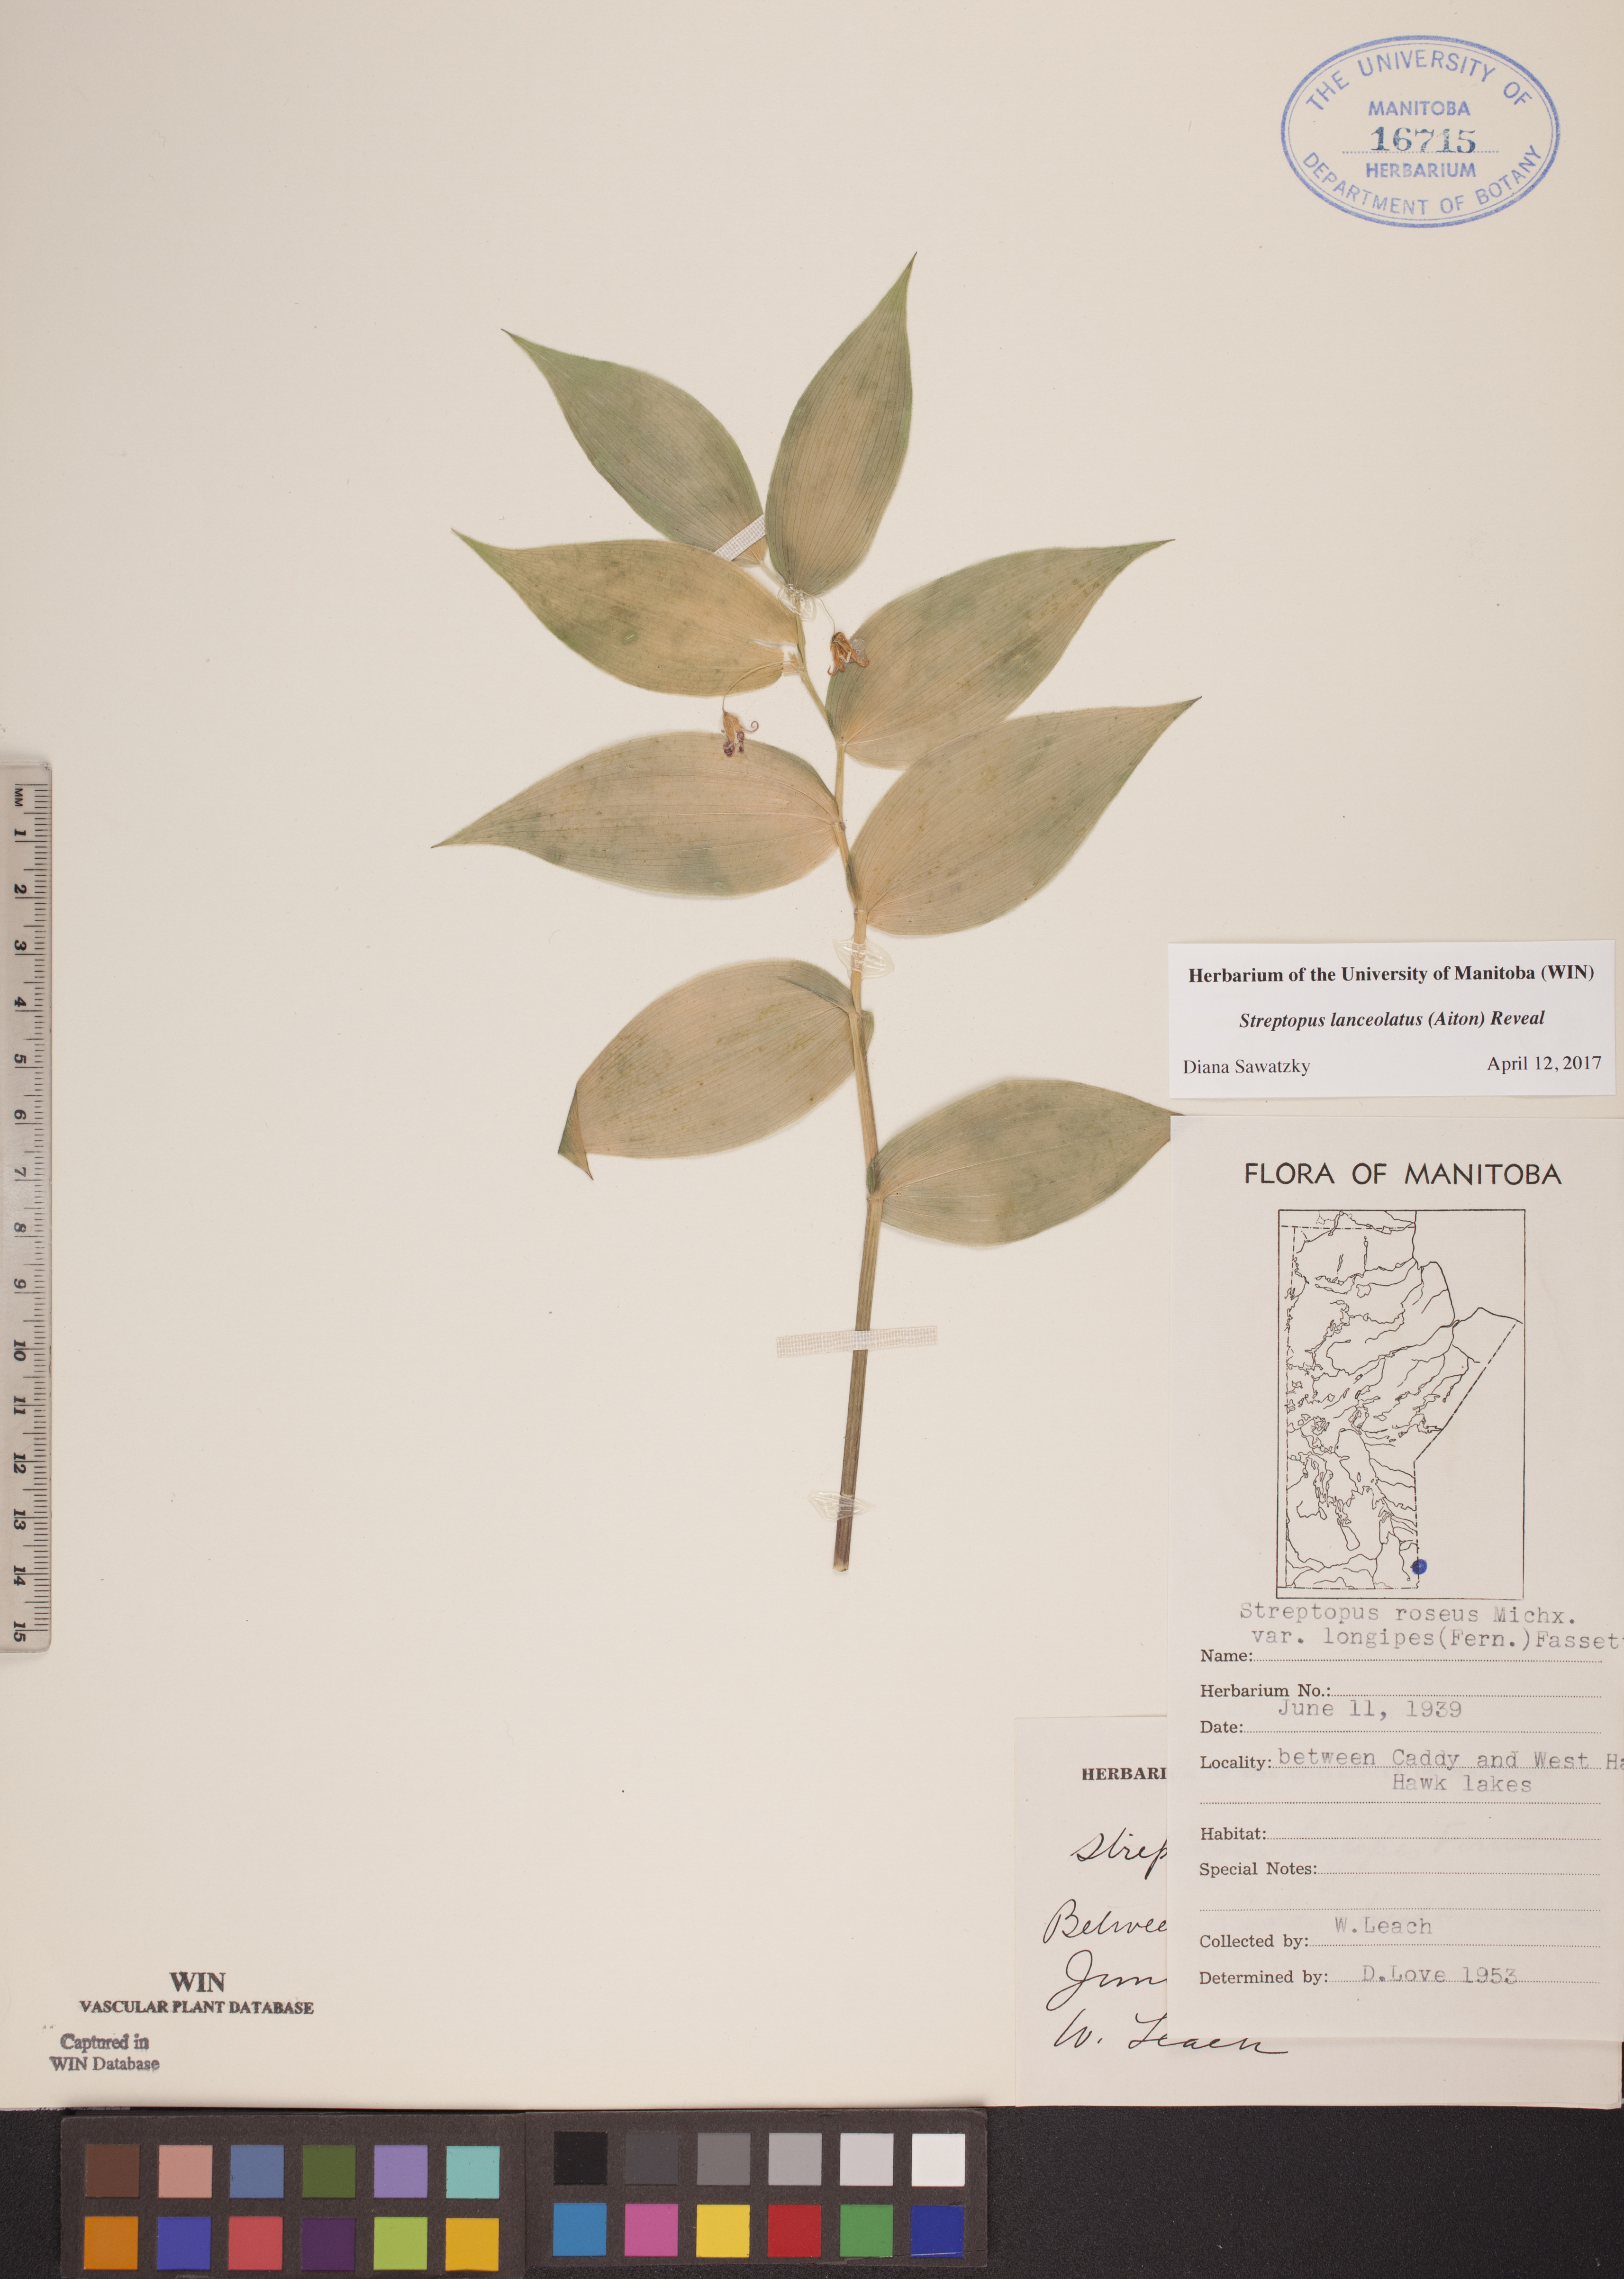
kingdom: Plantae
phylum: Tracheophyta
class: Liliopsida
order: Liliales
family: Liliaceae
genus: Streptopus
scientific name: Streptopus lanceolatus
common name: Rose mandarin
